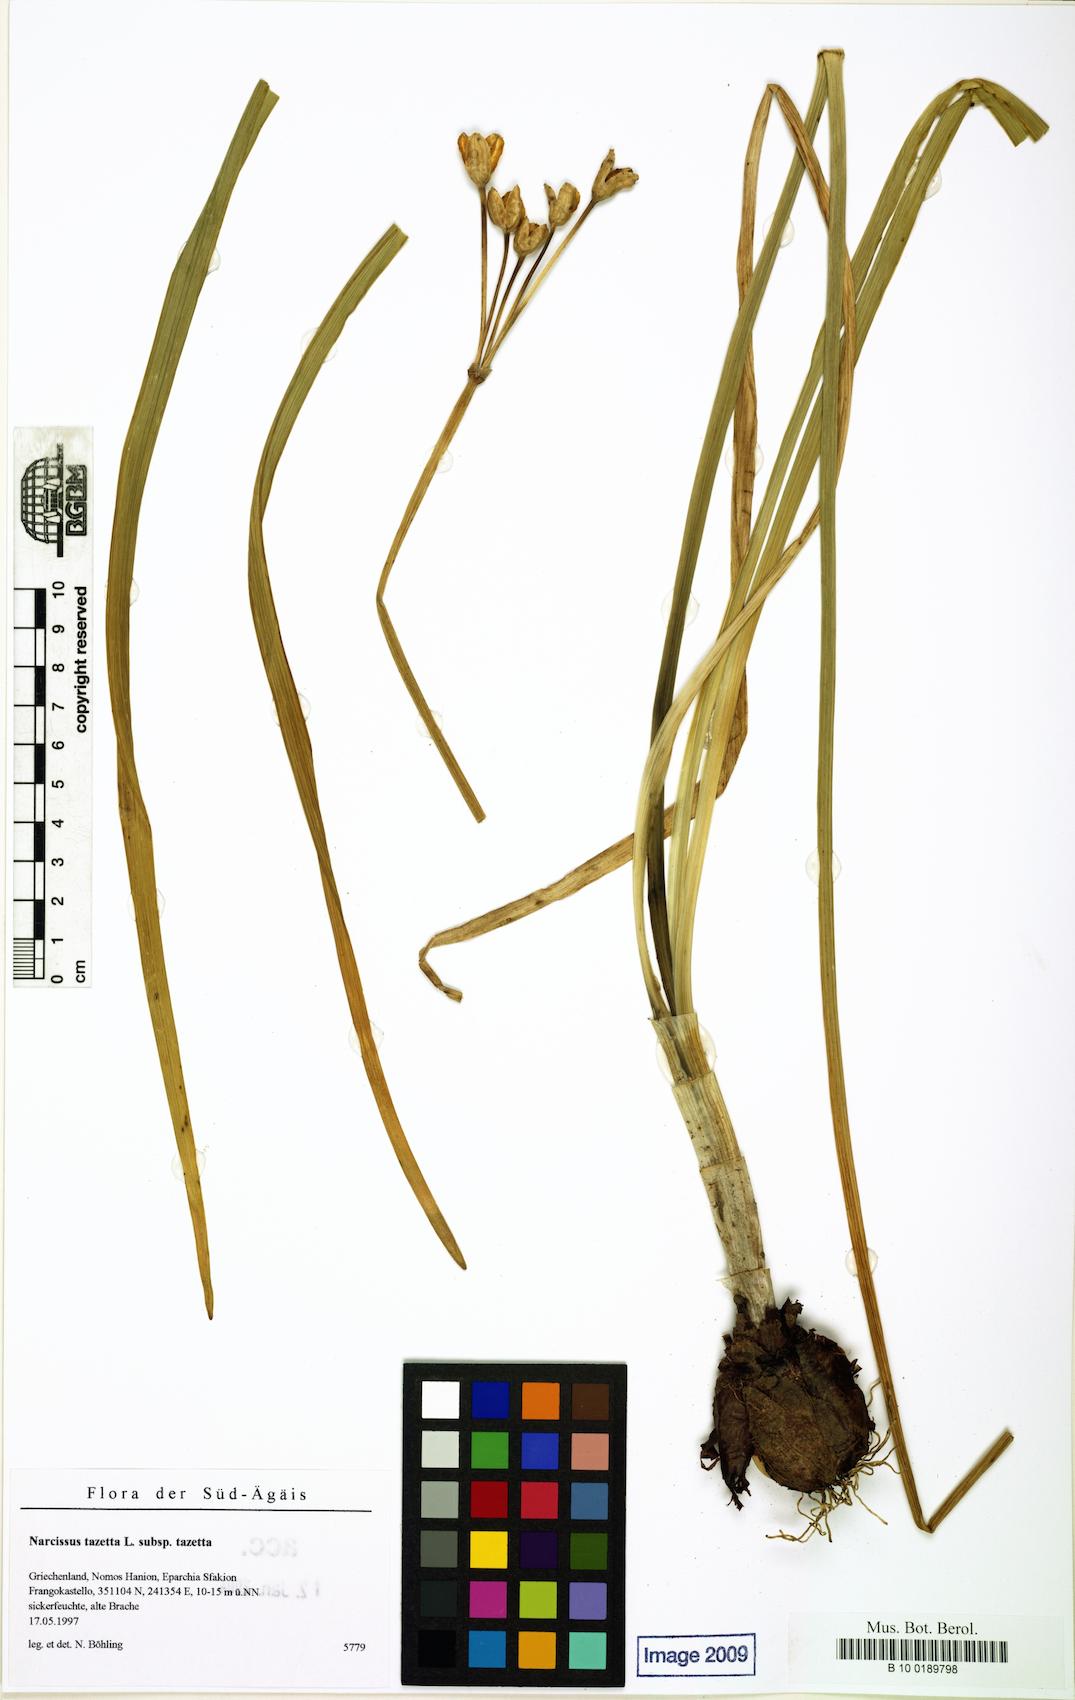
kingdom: Plantae
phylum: Tracheophyta
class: Liliopsida
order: Asparagales
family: Amaryllidaceae
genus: Narcissus
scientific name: Narcissus tazetta
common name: Bunch-flowered daffodil
